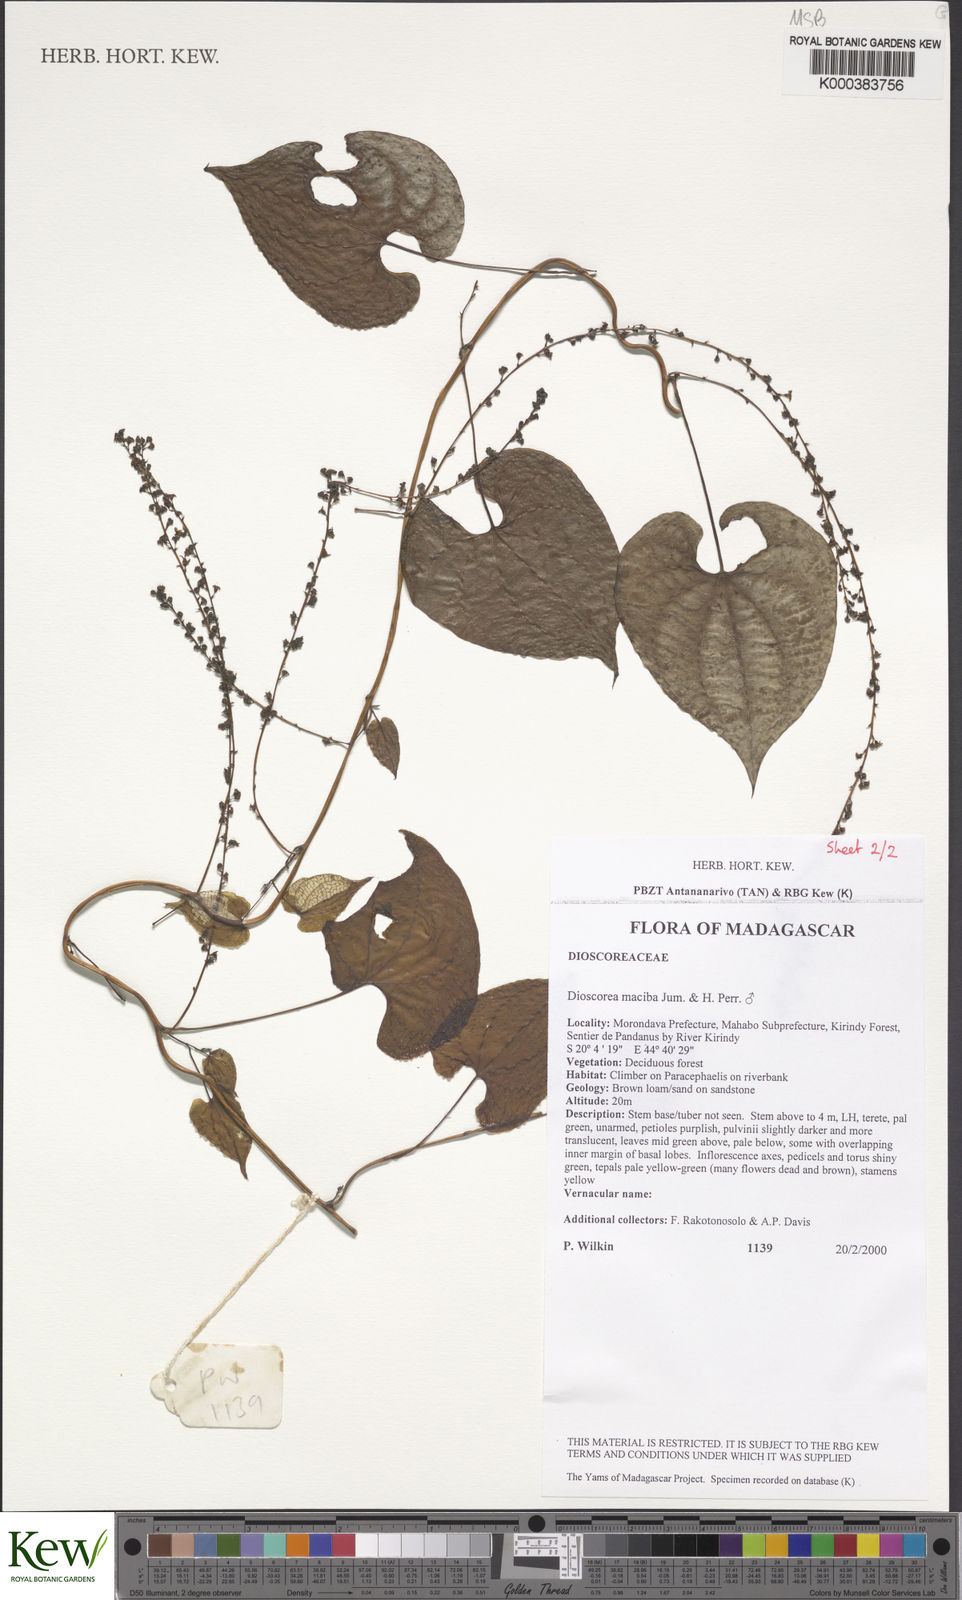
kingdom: Plantae
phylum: Tracheophyta
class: Liliopsida
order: Dioscoreales
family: Dioscoreaceae
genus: Dioscorea
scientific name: Dioscorea
